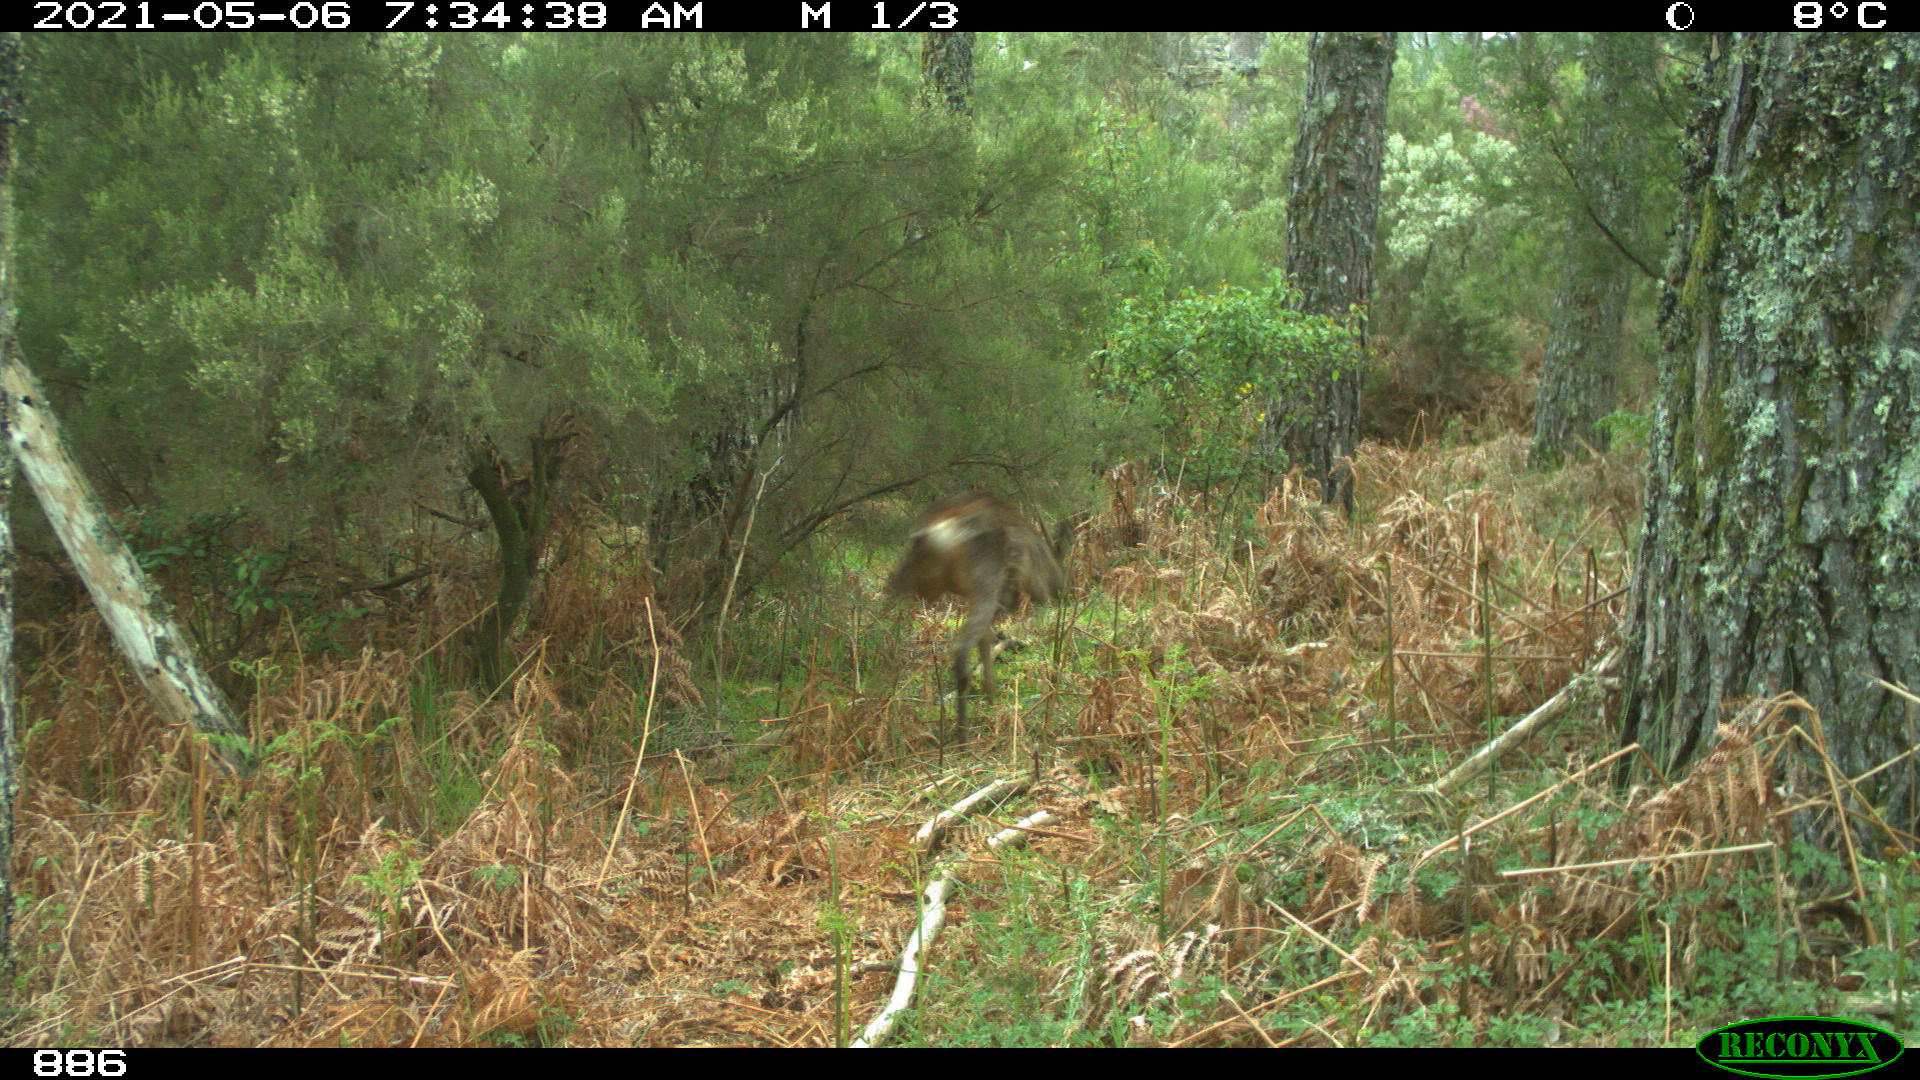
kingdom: Animalia
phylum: Chordata
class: Mammalia
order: Artiodactyla
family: Cervidae
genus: Capreolus
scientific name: Capreolus capreolus
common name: Western roe deer
